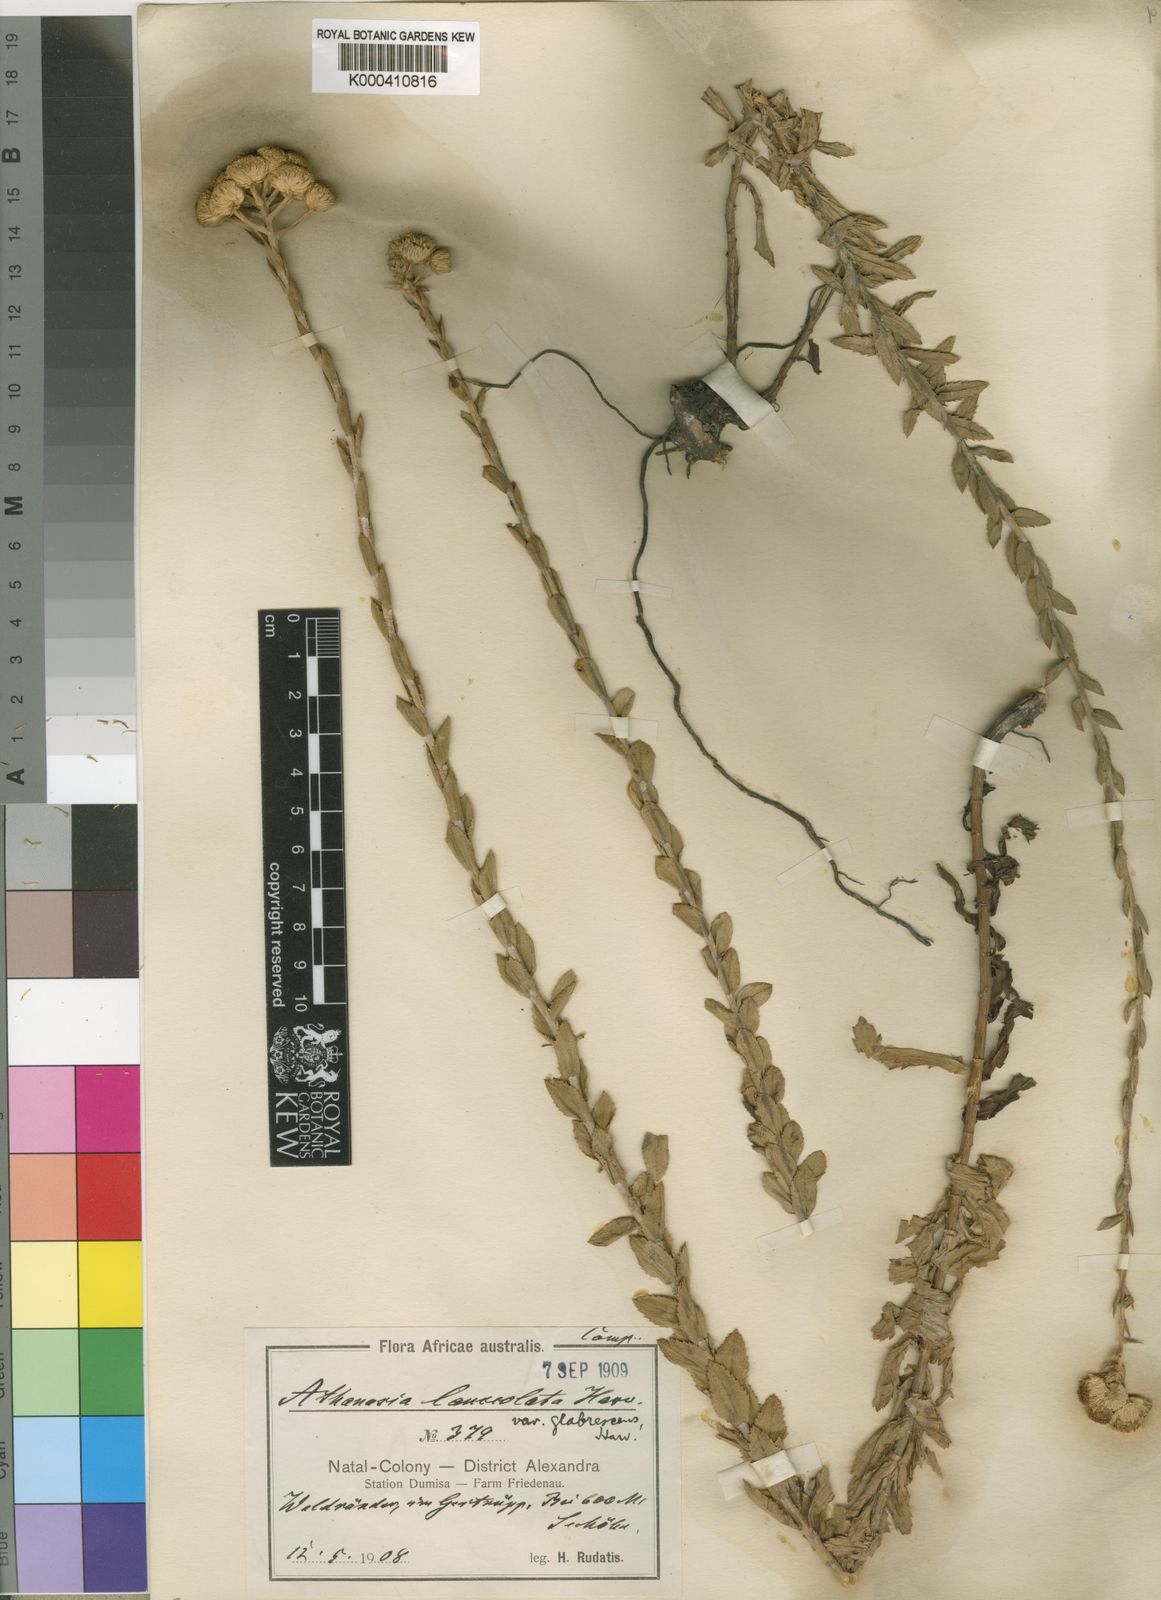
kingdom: Plantae
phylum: Tracheophyta
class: Magnoliopsida
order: Asterales
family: Asteraceae
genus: Inulanthera
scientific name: Inulanthera
